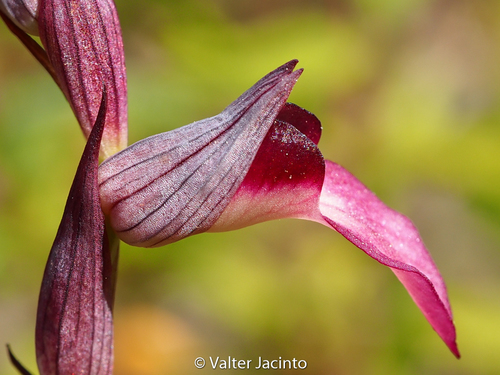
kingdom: Plantae
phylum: Tracheophyta
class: Liliopsida
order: Asparagales
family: Orchidaceae
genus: Serapias
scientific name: Serapias lingua
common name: Tongue-orchid
